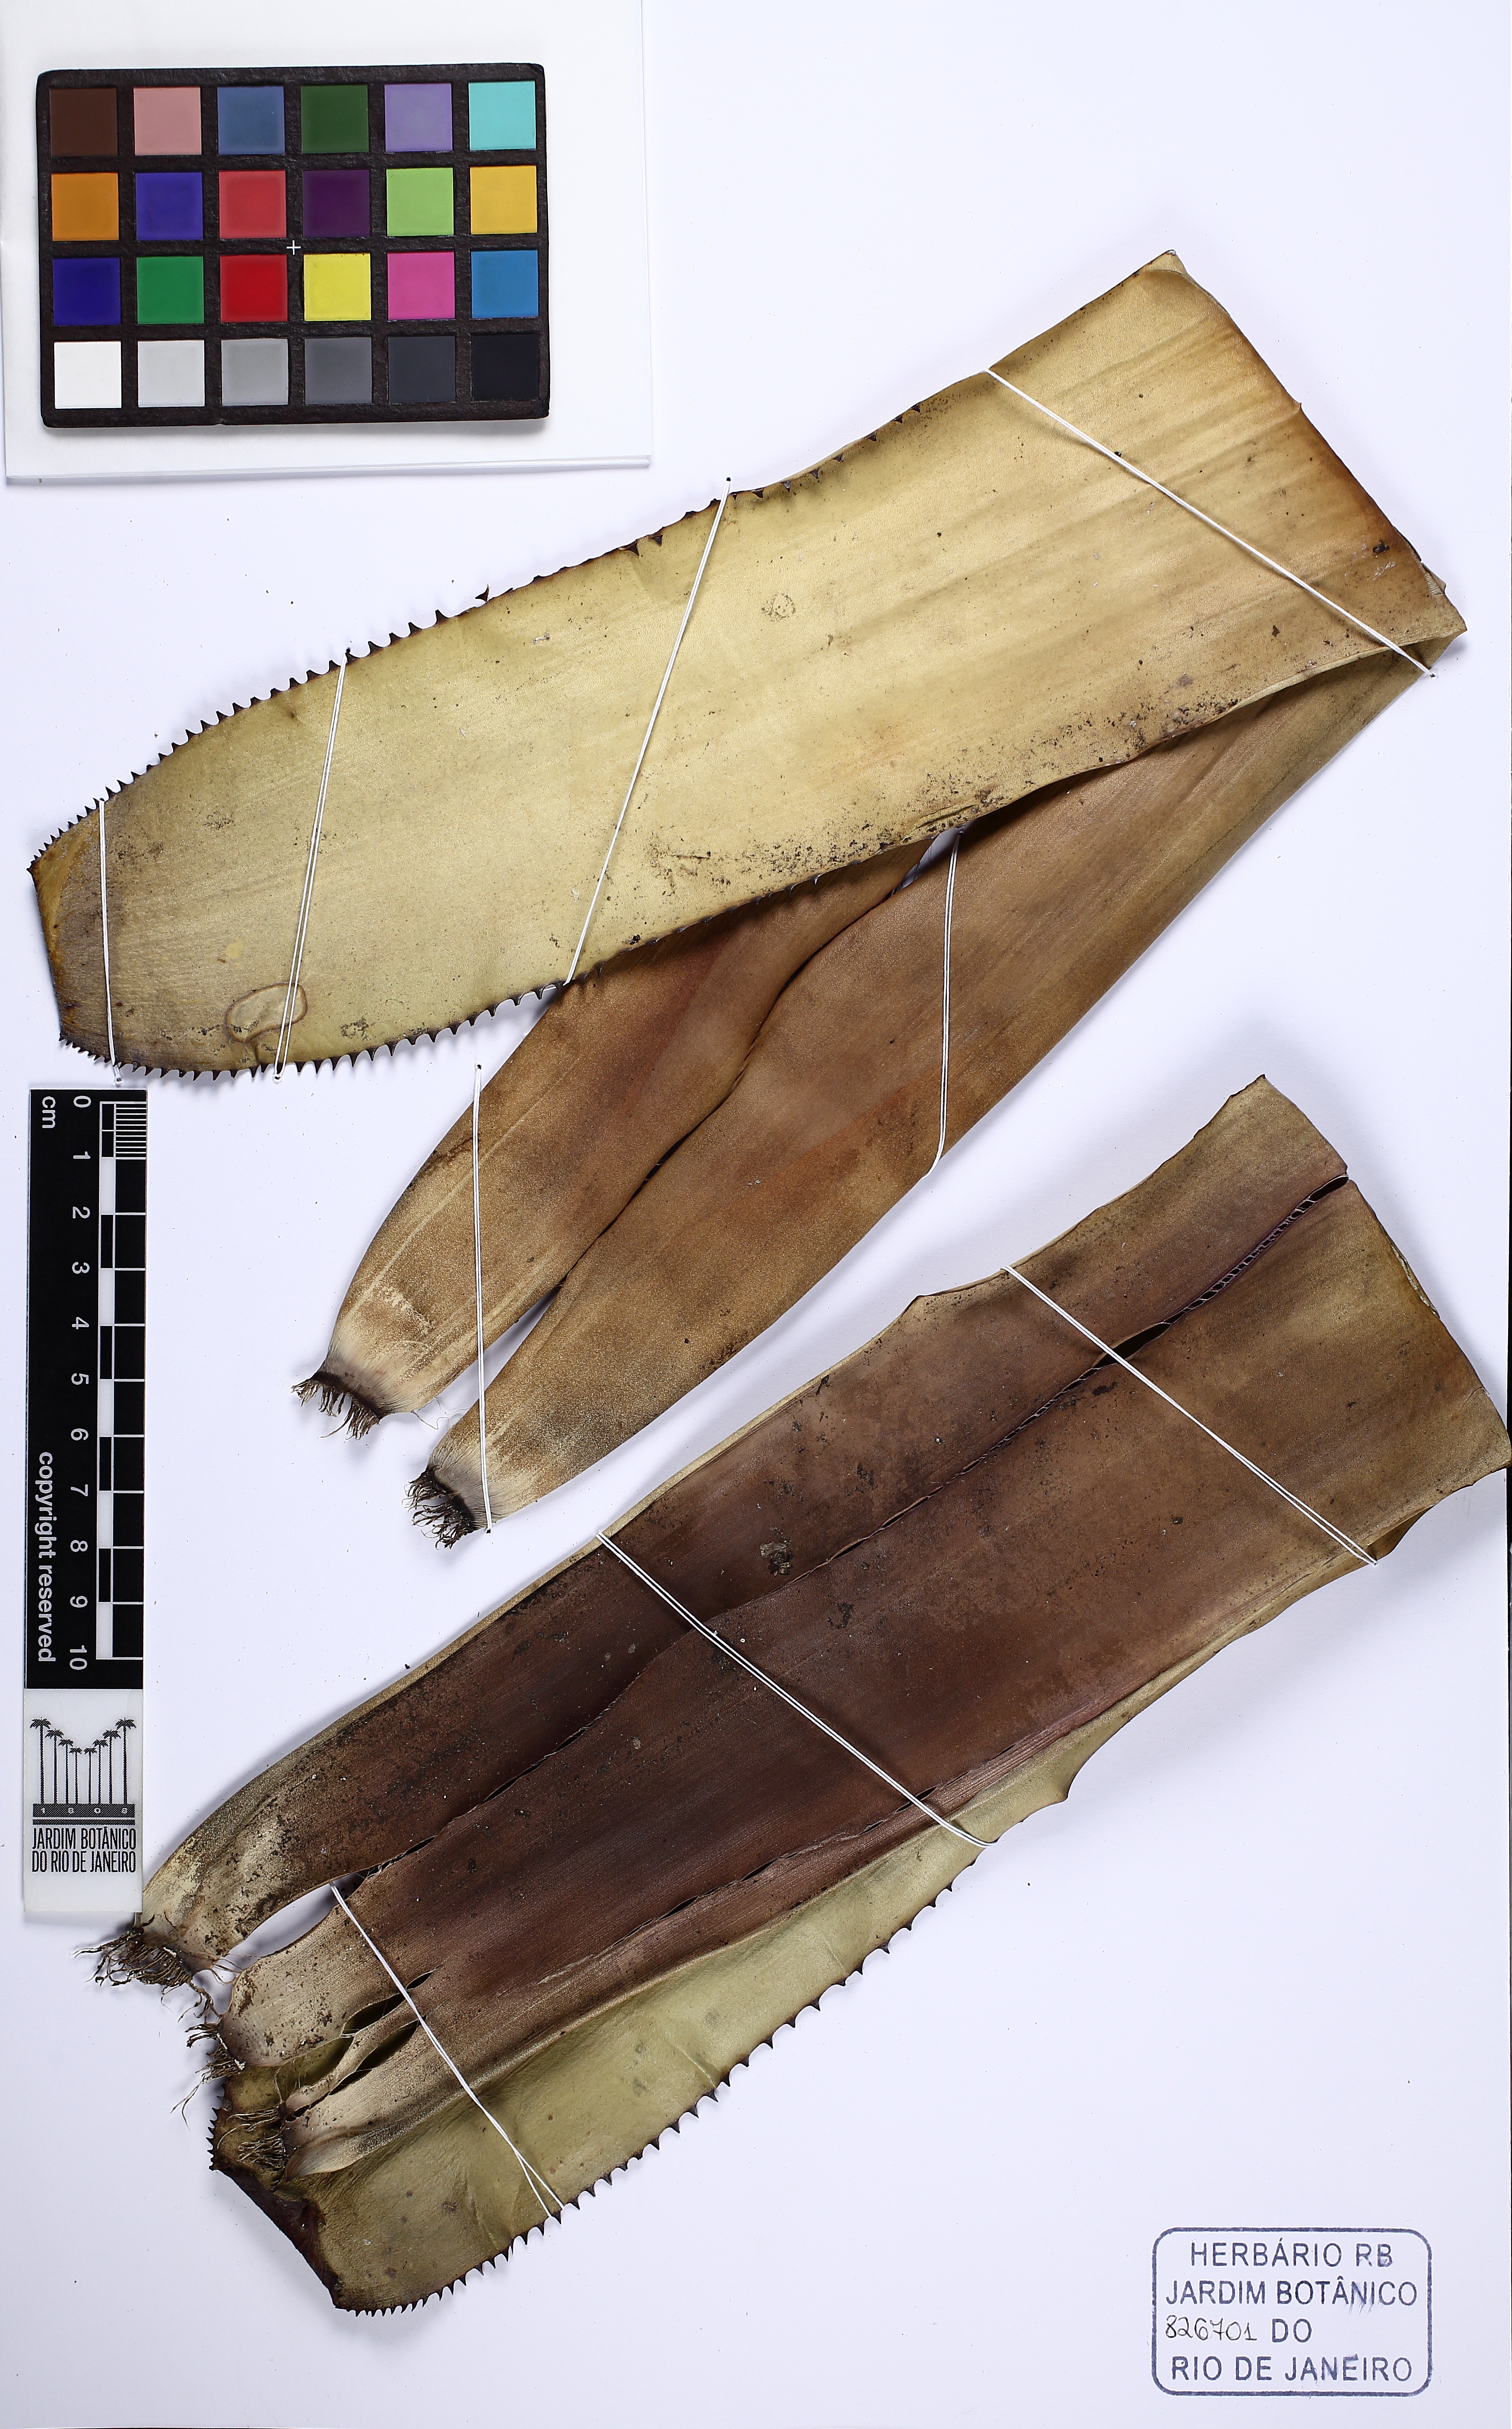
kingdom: Plantae
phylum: Tracheophyta
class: Liliopsida
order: Poales
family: Bromeliaceae
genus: Aechmea
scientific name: Aechmea nudicaulis
